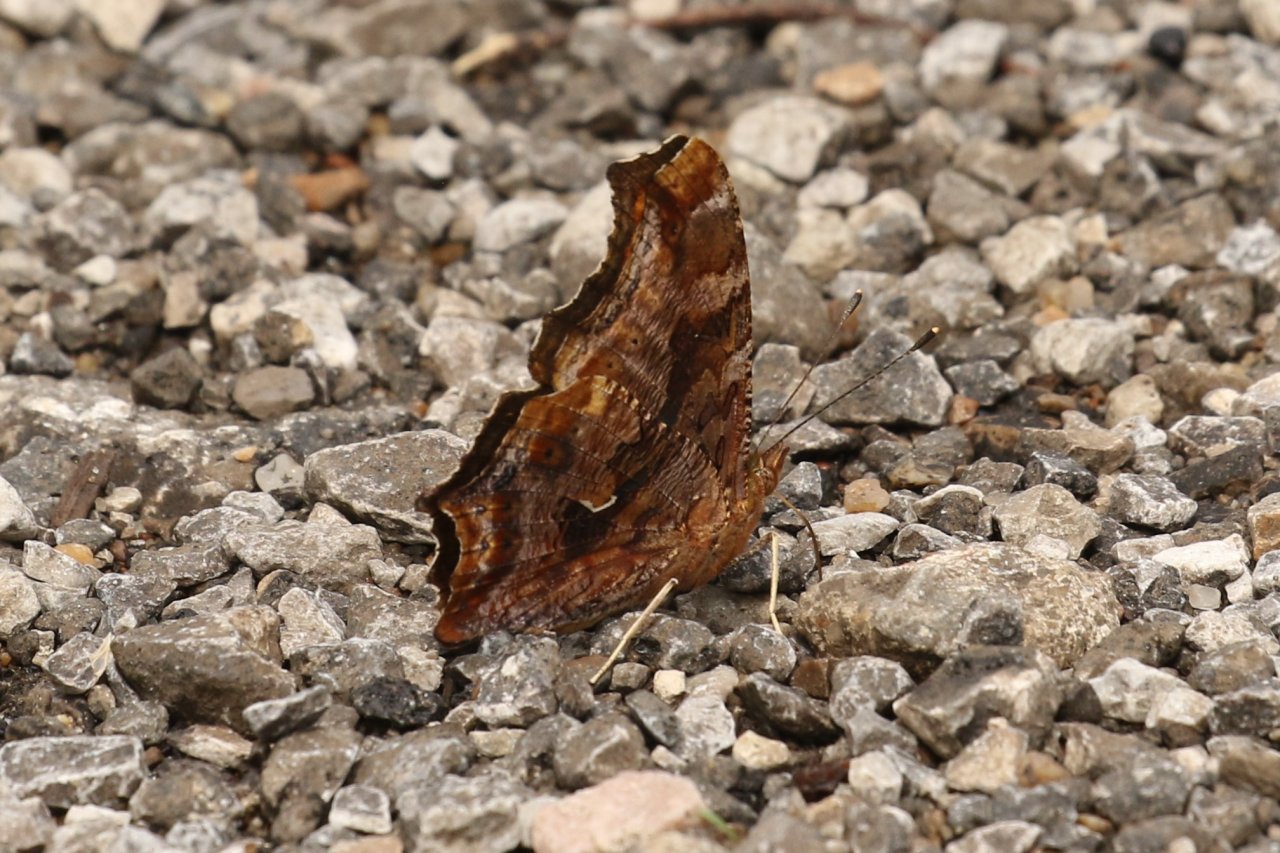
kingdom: Animalia
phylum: Arthropoda
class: Insecta
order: Lepidoptera
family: Nymphalidae
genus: Polygonia
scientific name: Polygonia comma
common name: Eastern Comma
